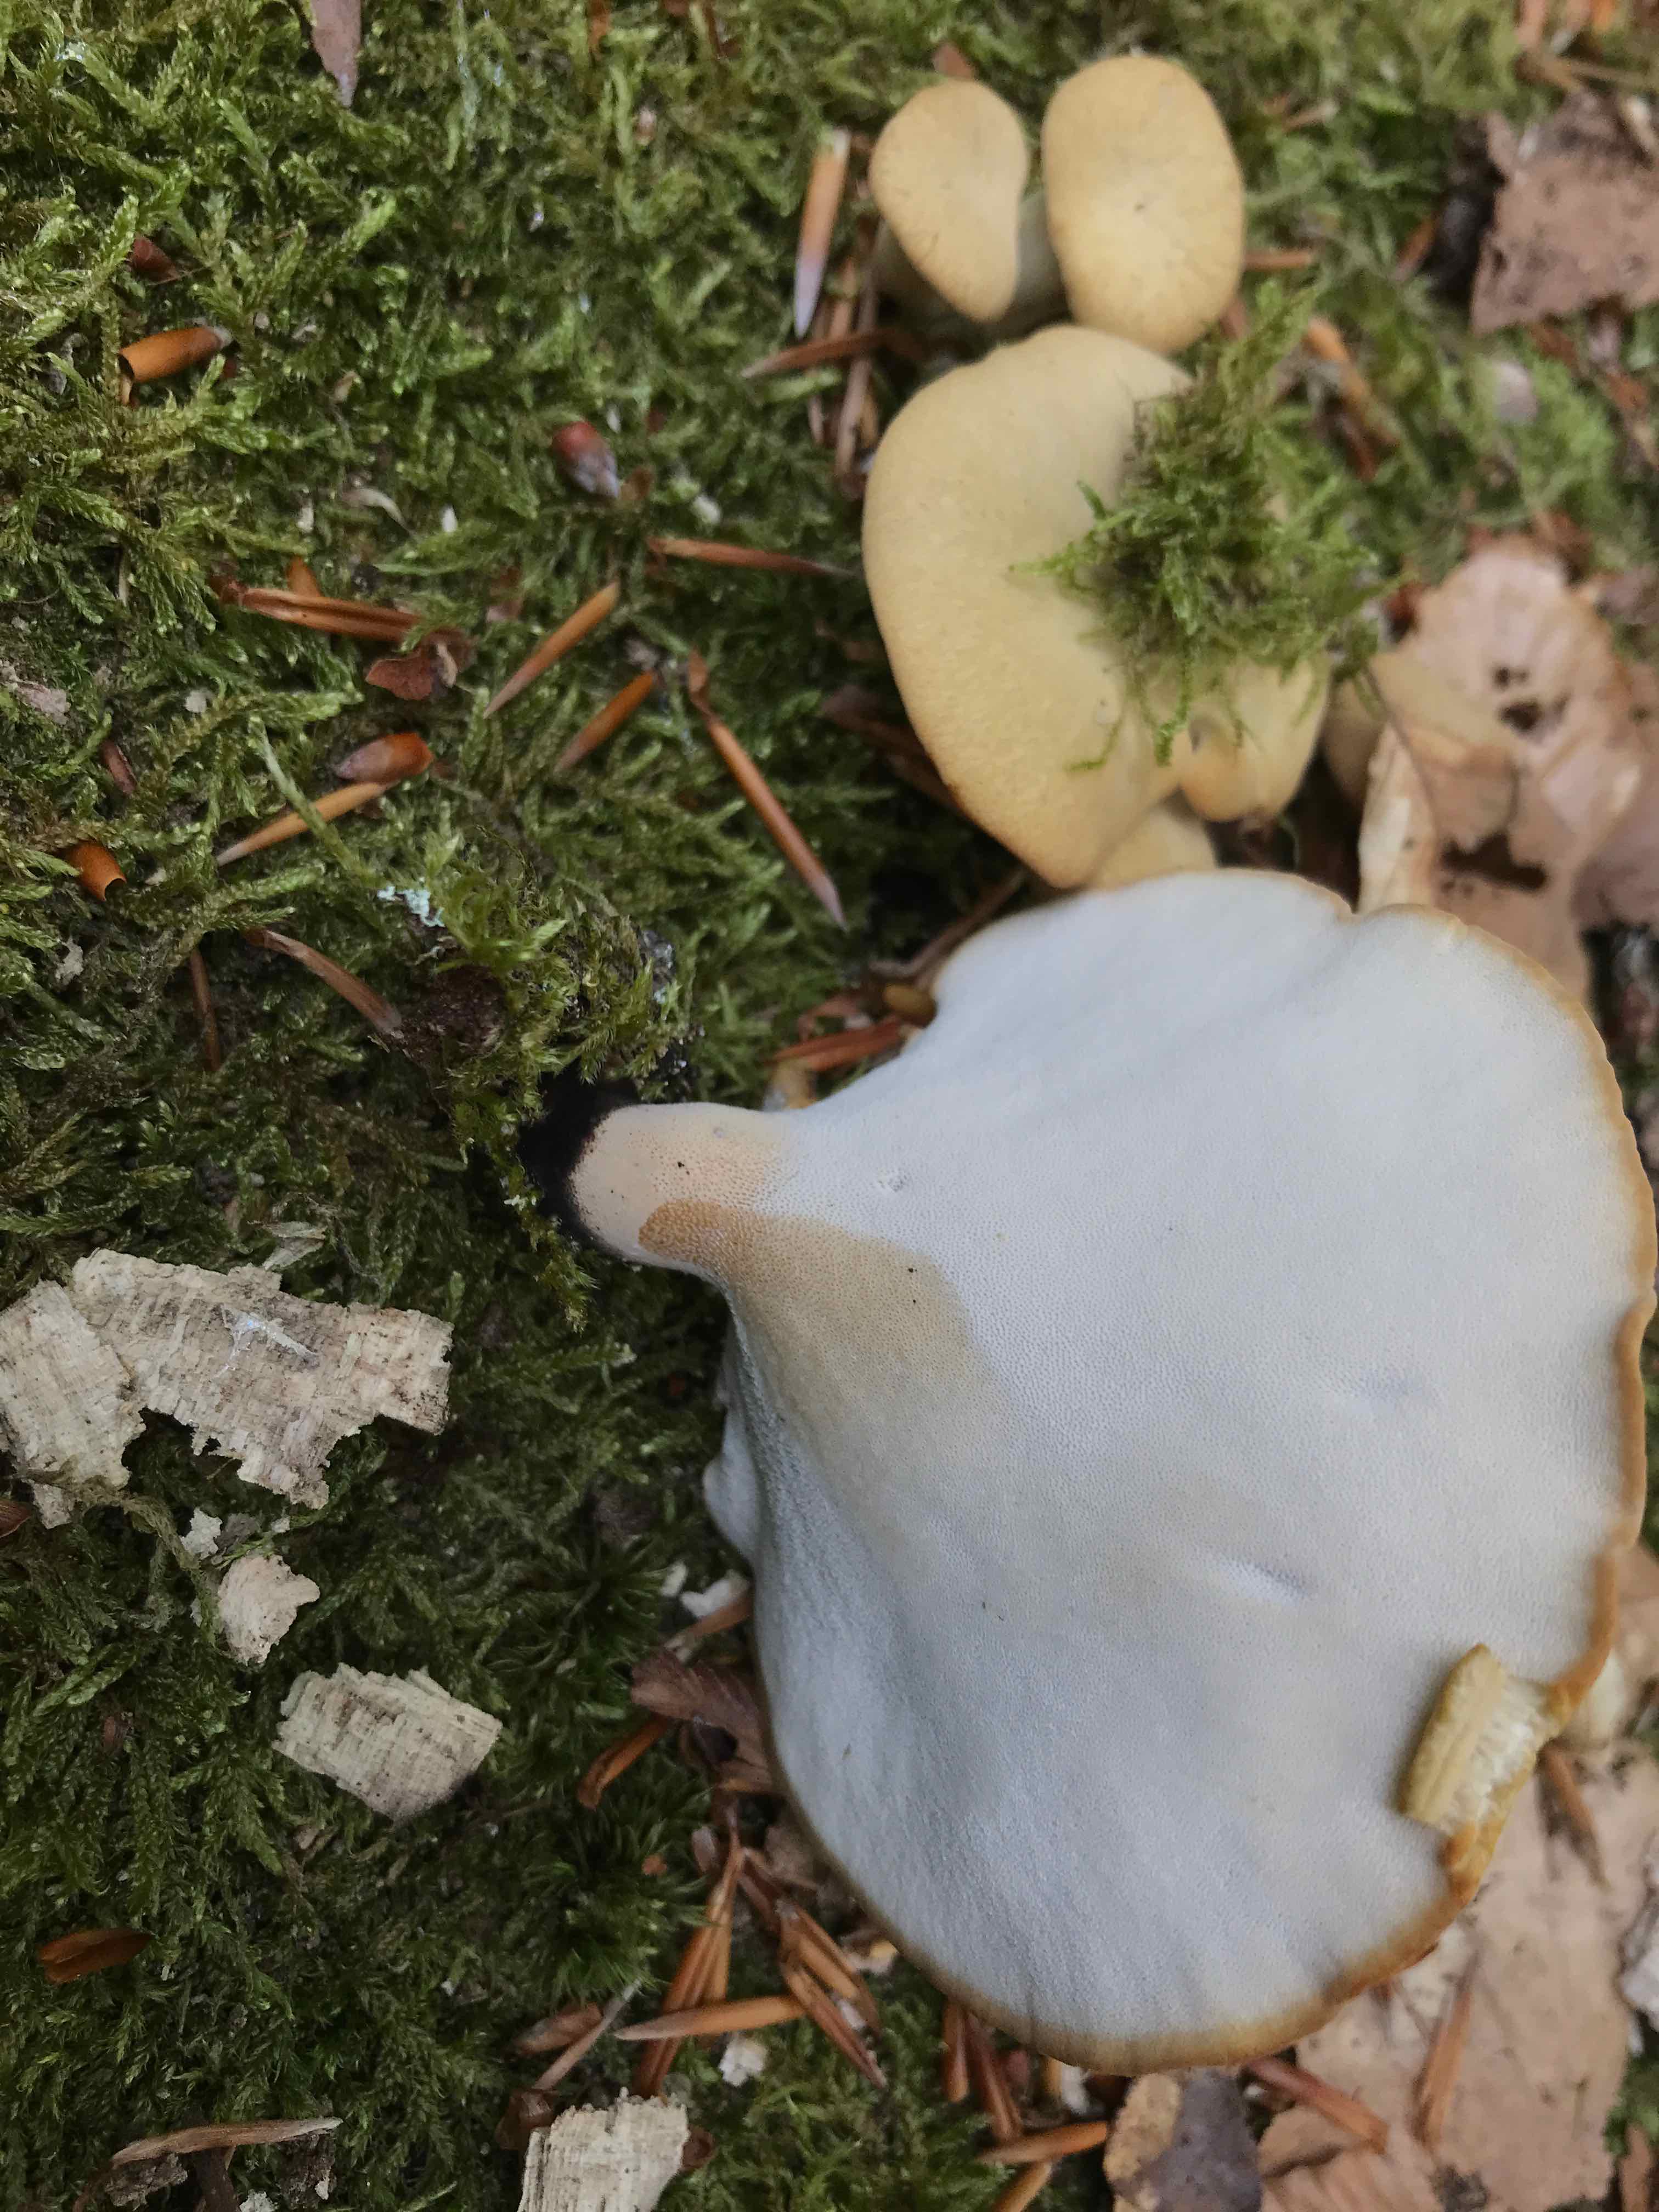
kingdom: Fungi
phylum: Basidiomycota
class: Agaricomycetes
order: Polyporales
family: Polyporaceae
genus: Cerioporus
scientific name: Cerioporus varius
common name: foranderlig stilkporesvamp
